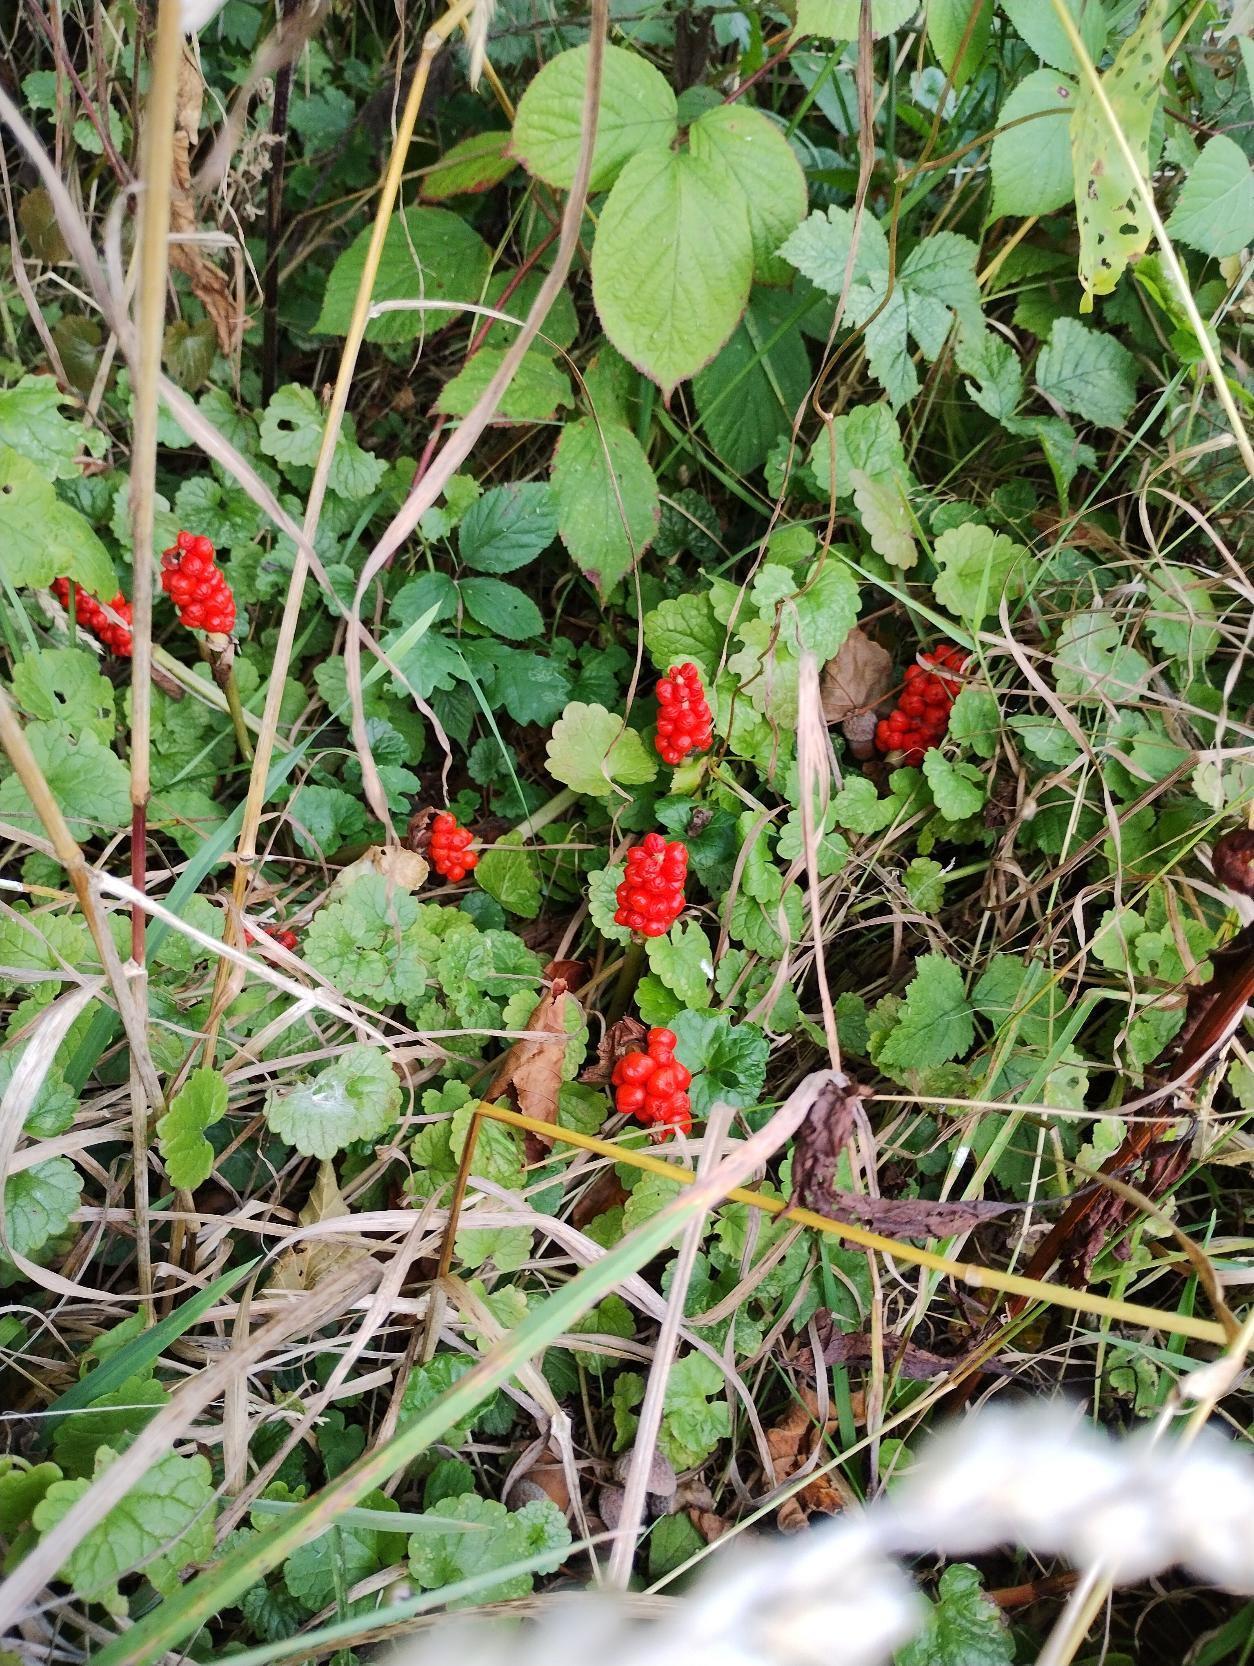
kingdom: Plantae
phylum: Tracheophyta
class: Liliopsida
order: Alismatales
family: Araceae
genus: Arum
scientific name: Arum
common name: Arumslægten
